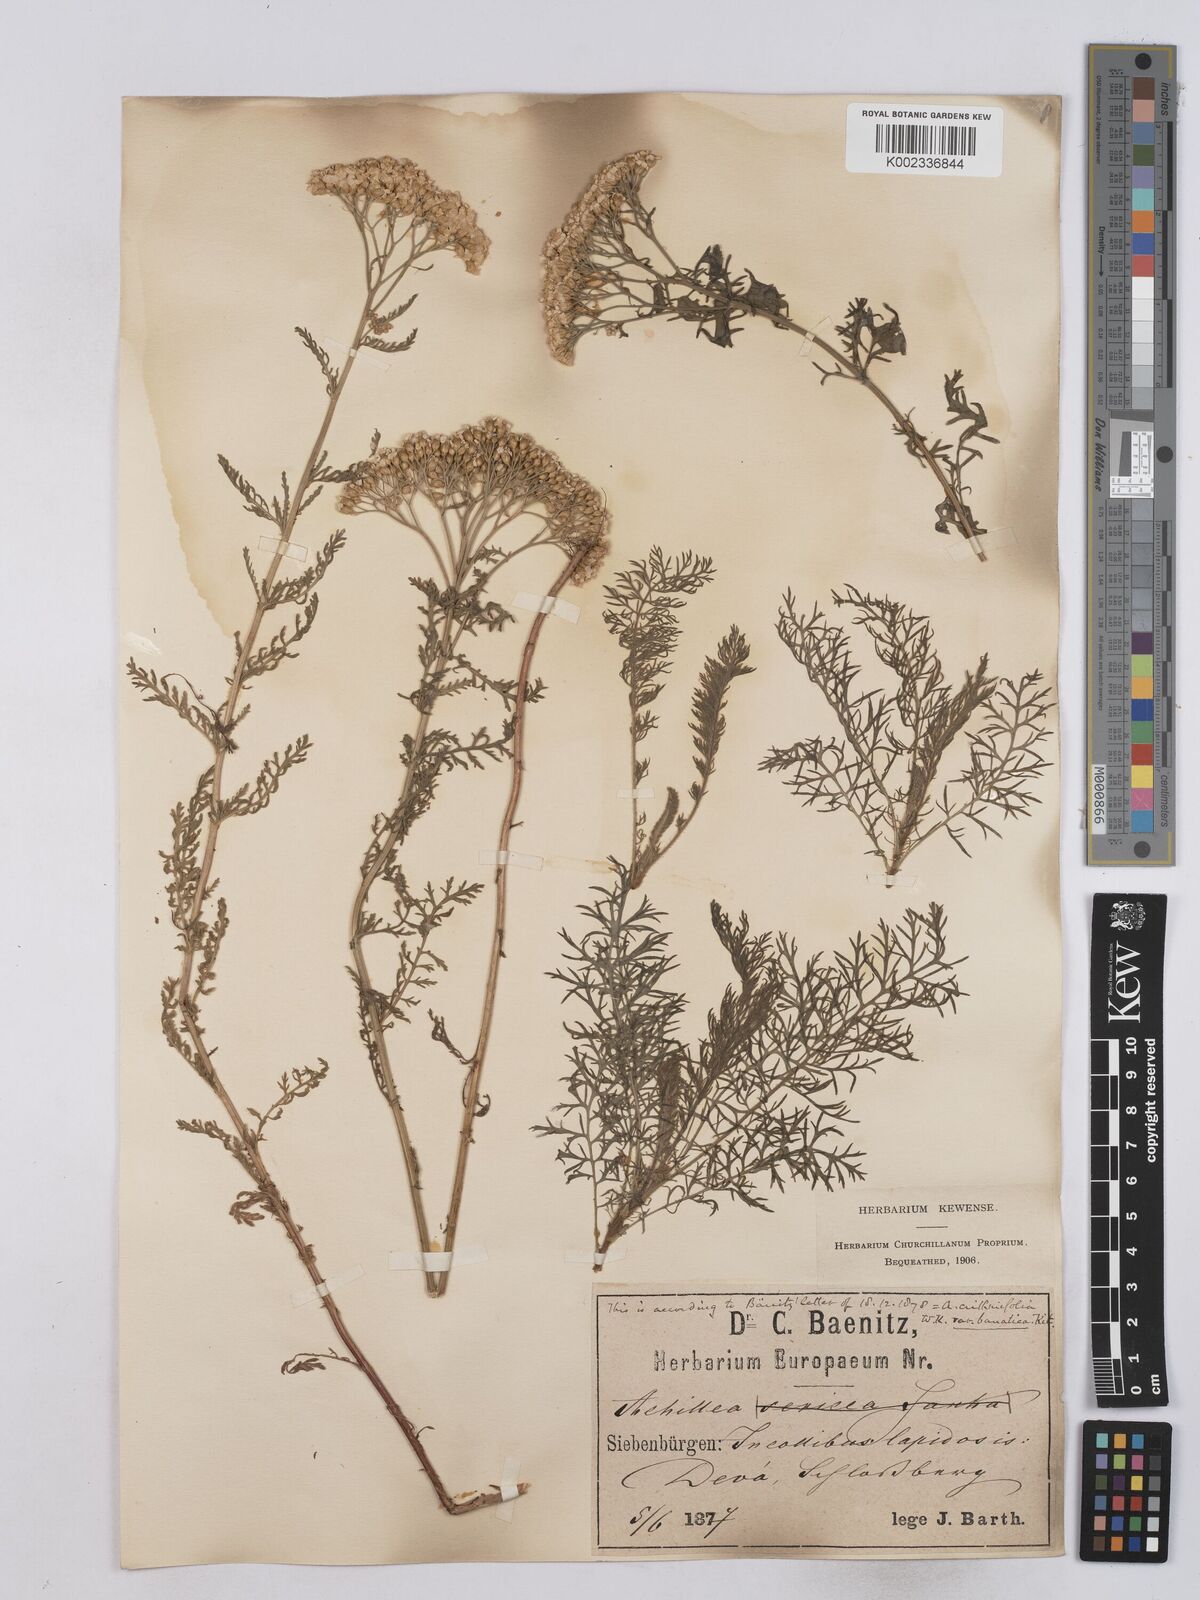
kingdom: Plantae
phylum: Tracheophyta
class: Magnoliopsida
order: Asterales
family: Asteraceae
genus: Achillea
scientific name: Achillea crithmifolia
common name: Yarrow
